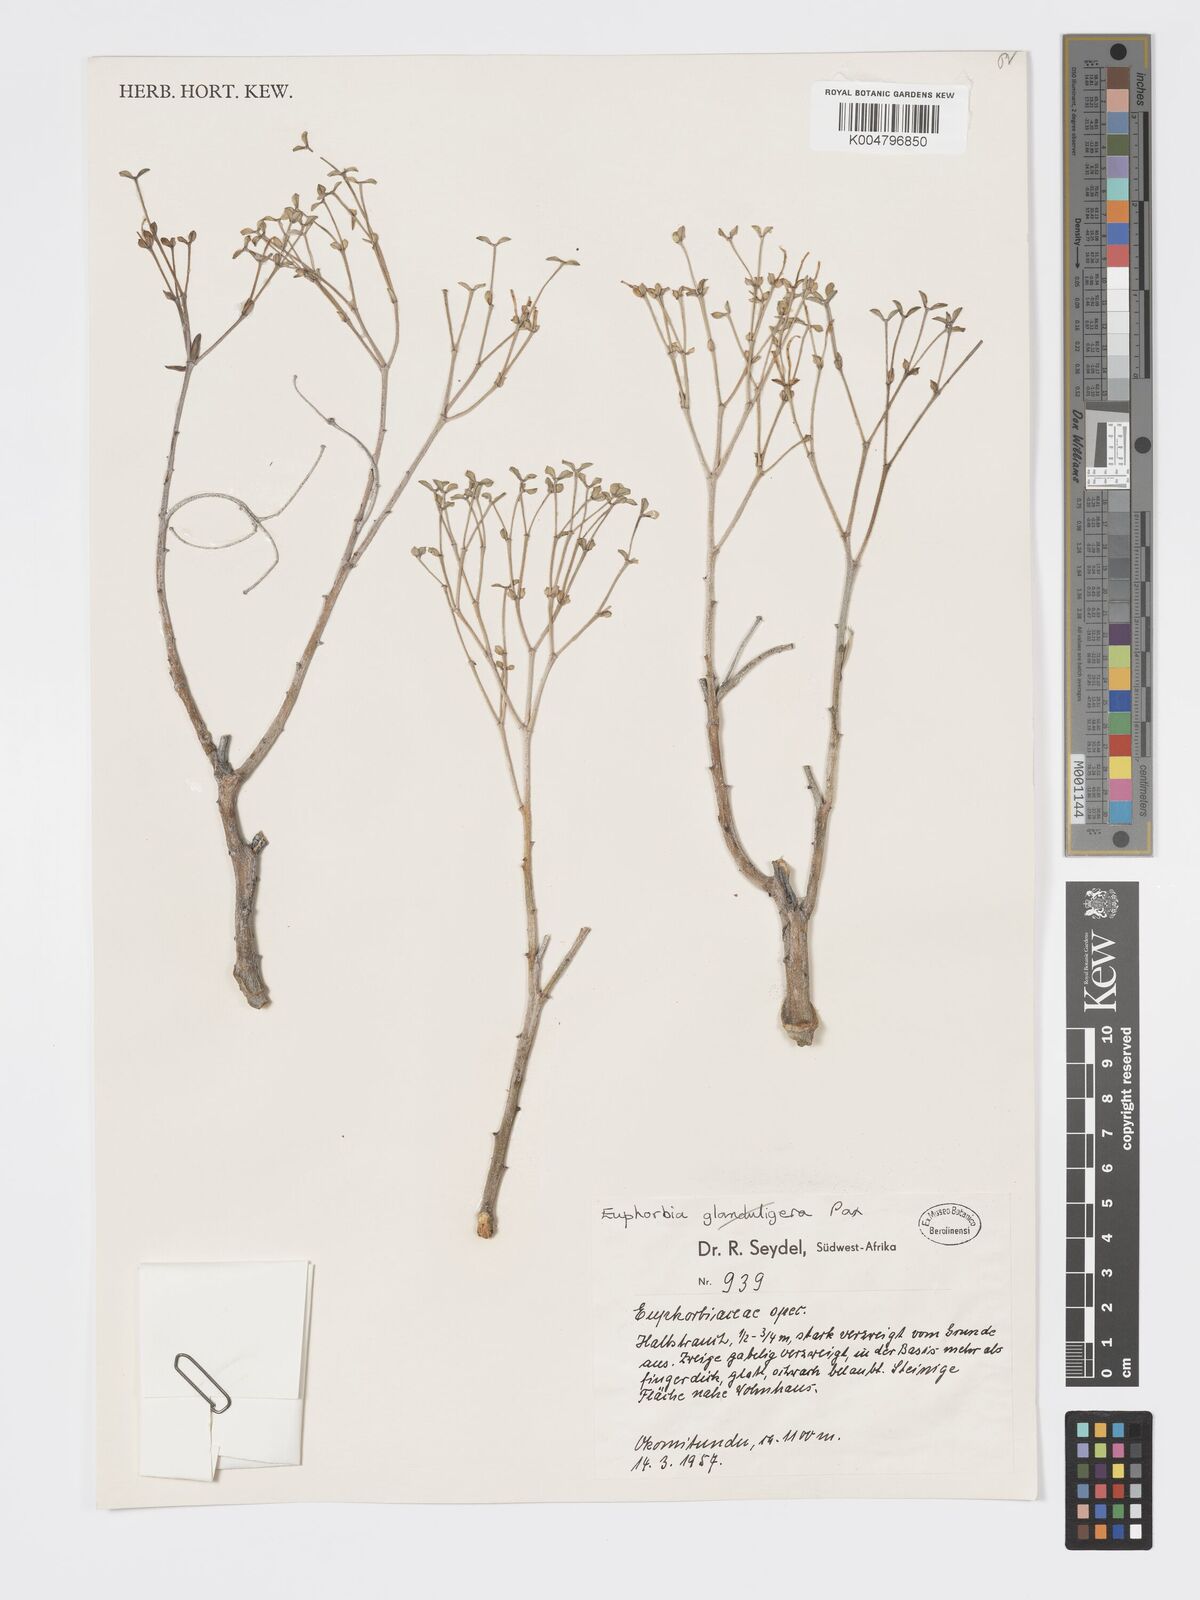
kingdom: Plantae
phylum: Tracheophyta
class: Magnoliopsida
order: Malpighiales
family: Euphorbiaceae
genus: Euphorbia
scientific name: Euphorbia gariepina
